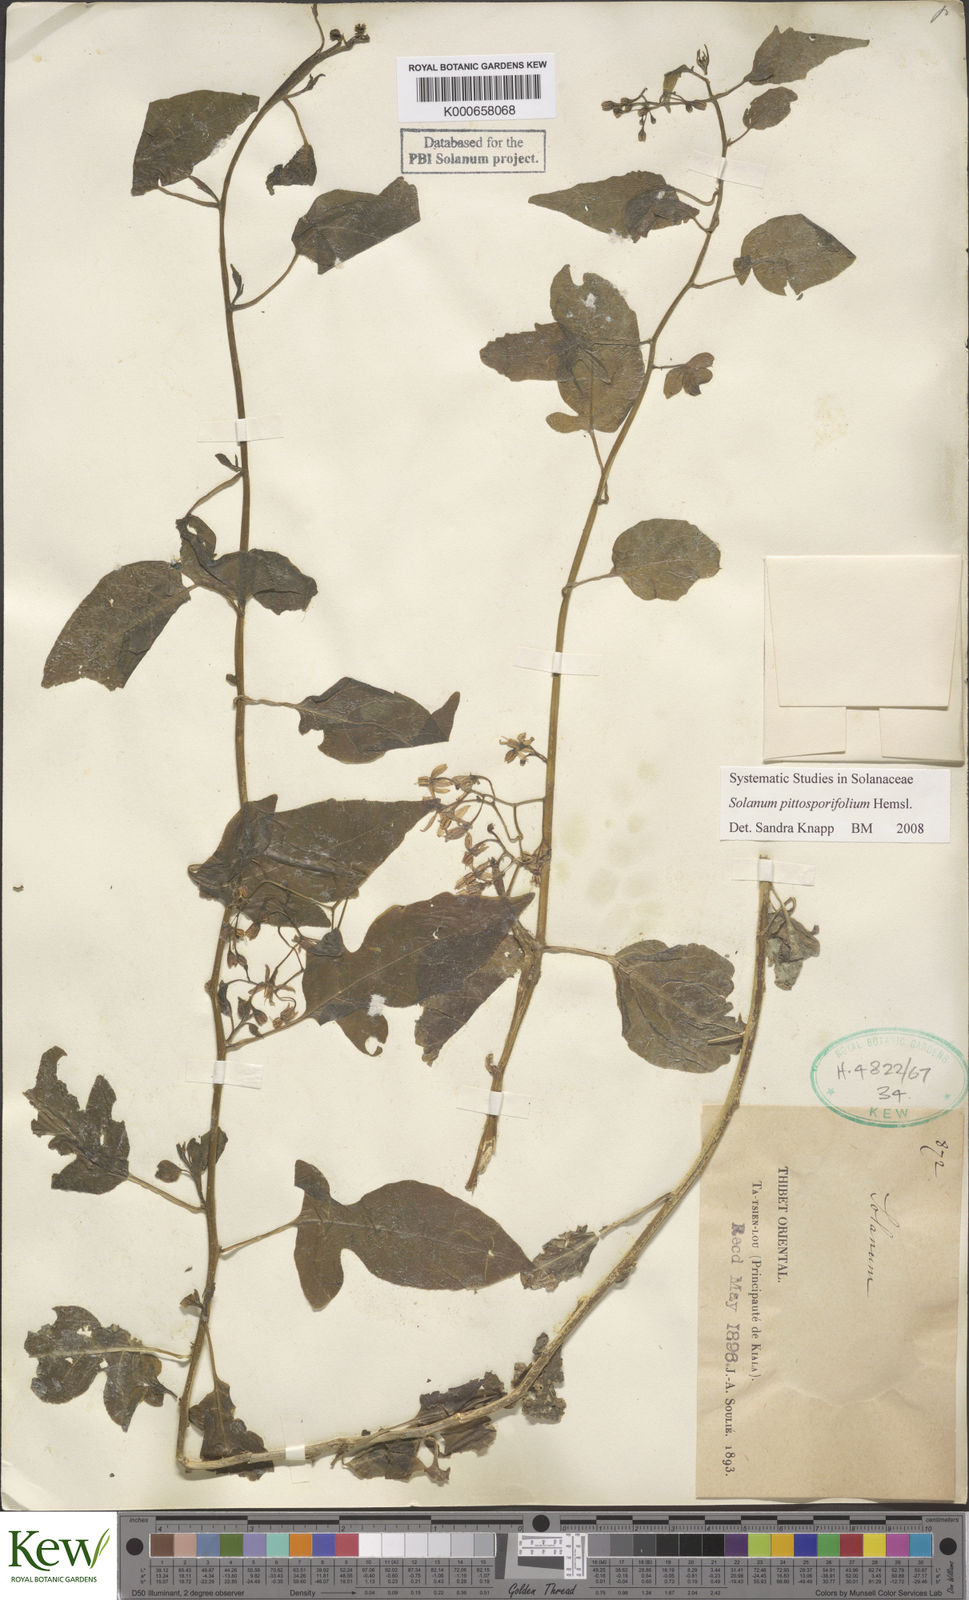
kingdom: Plantae
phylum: Tracheophyta
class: Magnoliopsida
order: Solanales
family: Solanaceae
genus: Solanum
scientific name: Solanum septemlobum
